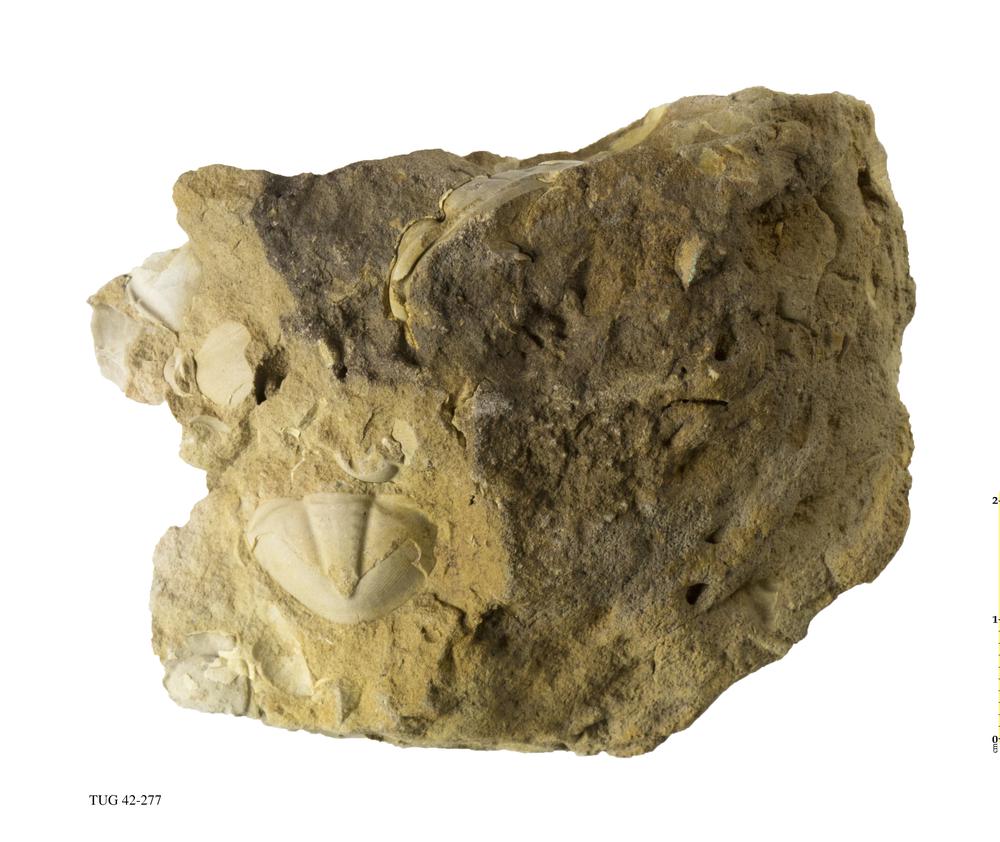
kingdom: Animalia
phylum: Arthropoda
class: Trilobita
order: Asaphida
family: Asaphidae
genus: Asaphus
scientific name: Asaphus
